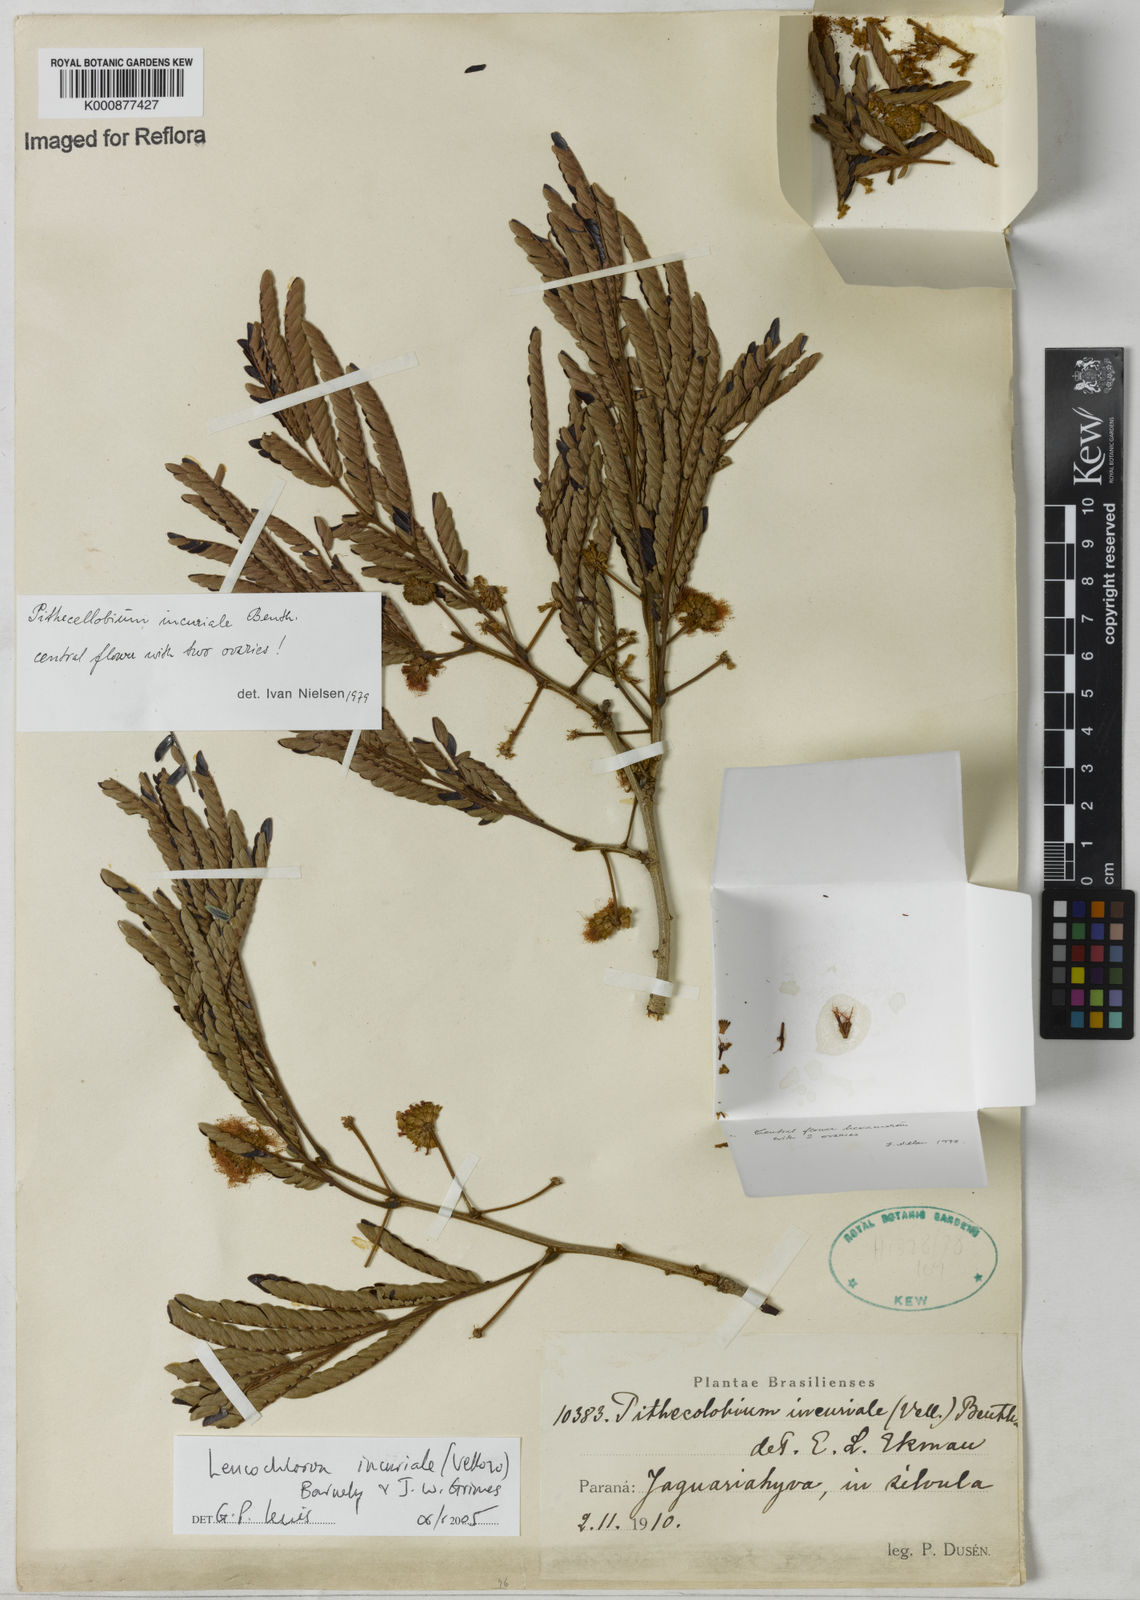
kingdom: Plantae
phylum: Tracheophyta
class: Magnoliopsida
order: Fabales
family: Fabaceae
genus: Leucochloron
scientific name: Leucochloron incuriale
